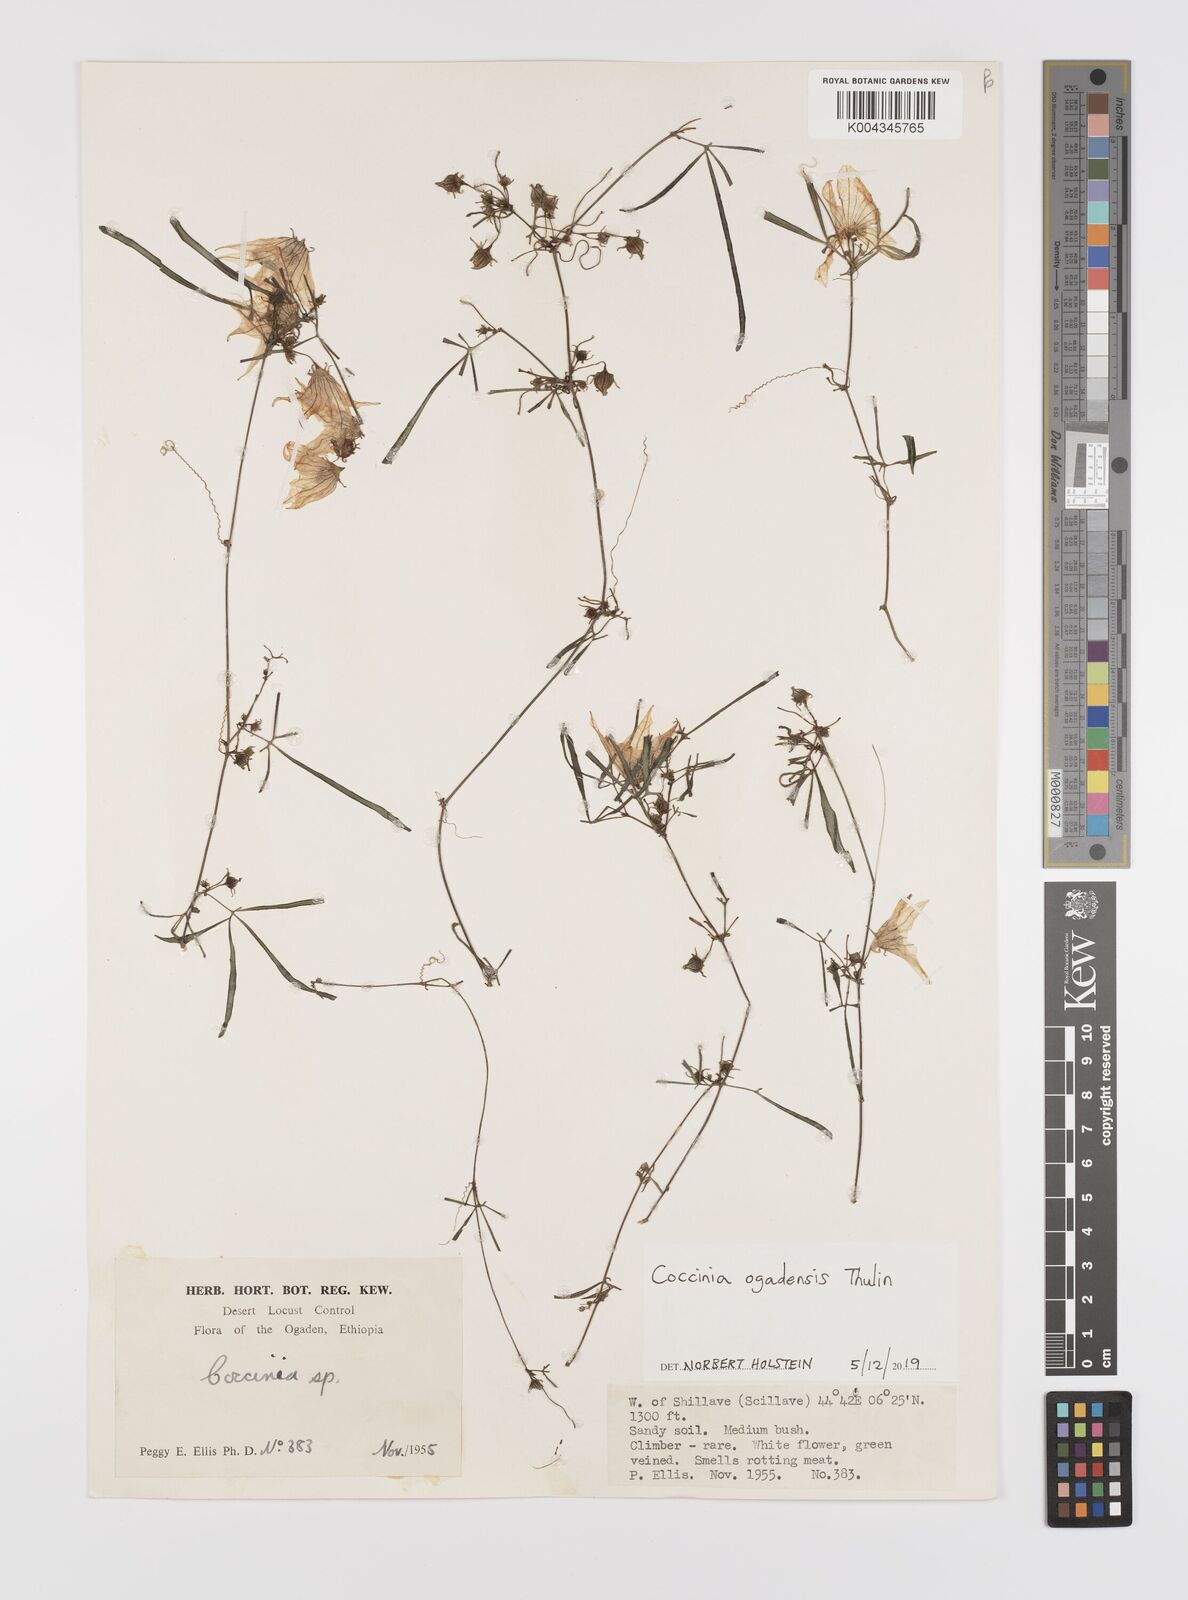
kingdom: Plantae
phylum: Tracheophyta
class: Magnoliopsida
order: Cucurbitales
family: Cucurbitaceae
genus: Coccinia
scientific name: Coccinia ogadensis
